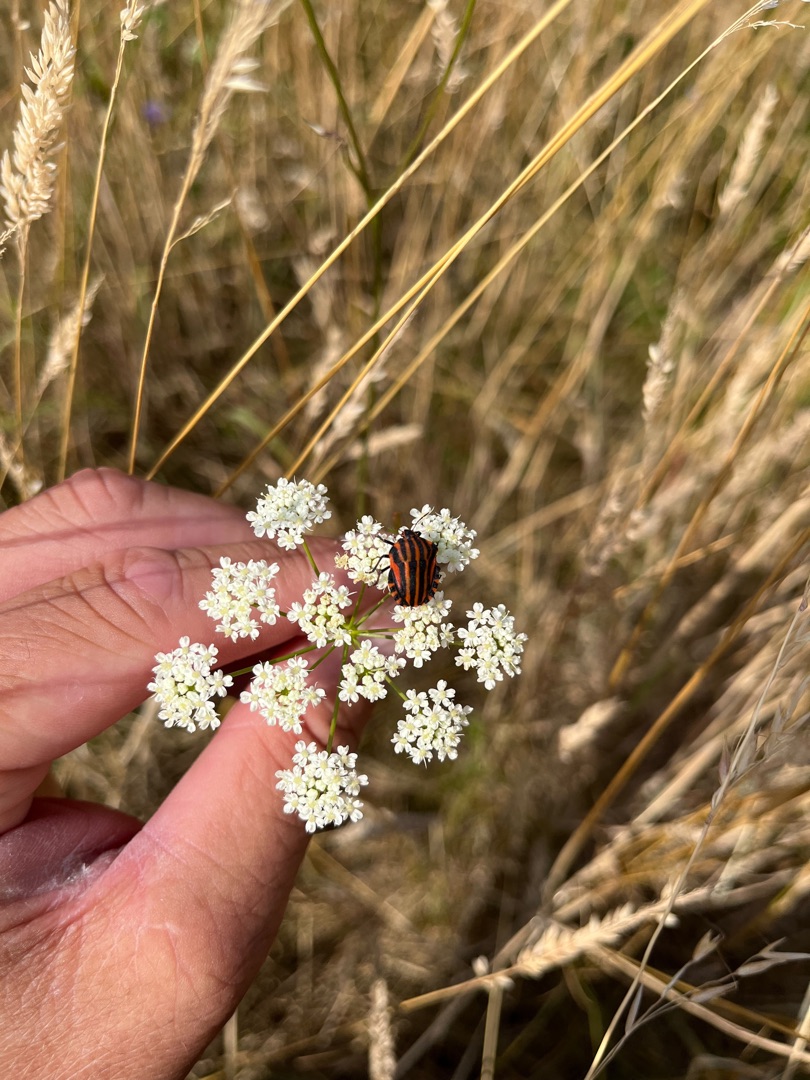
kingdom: Animalia
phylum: Arthropoda
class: Insecta
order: Hemiptera
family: Pentatomidae
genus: Graphosoma
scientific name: Graphosoma italicum
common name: Stribetæge
